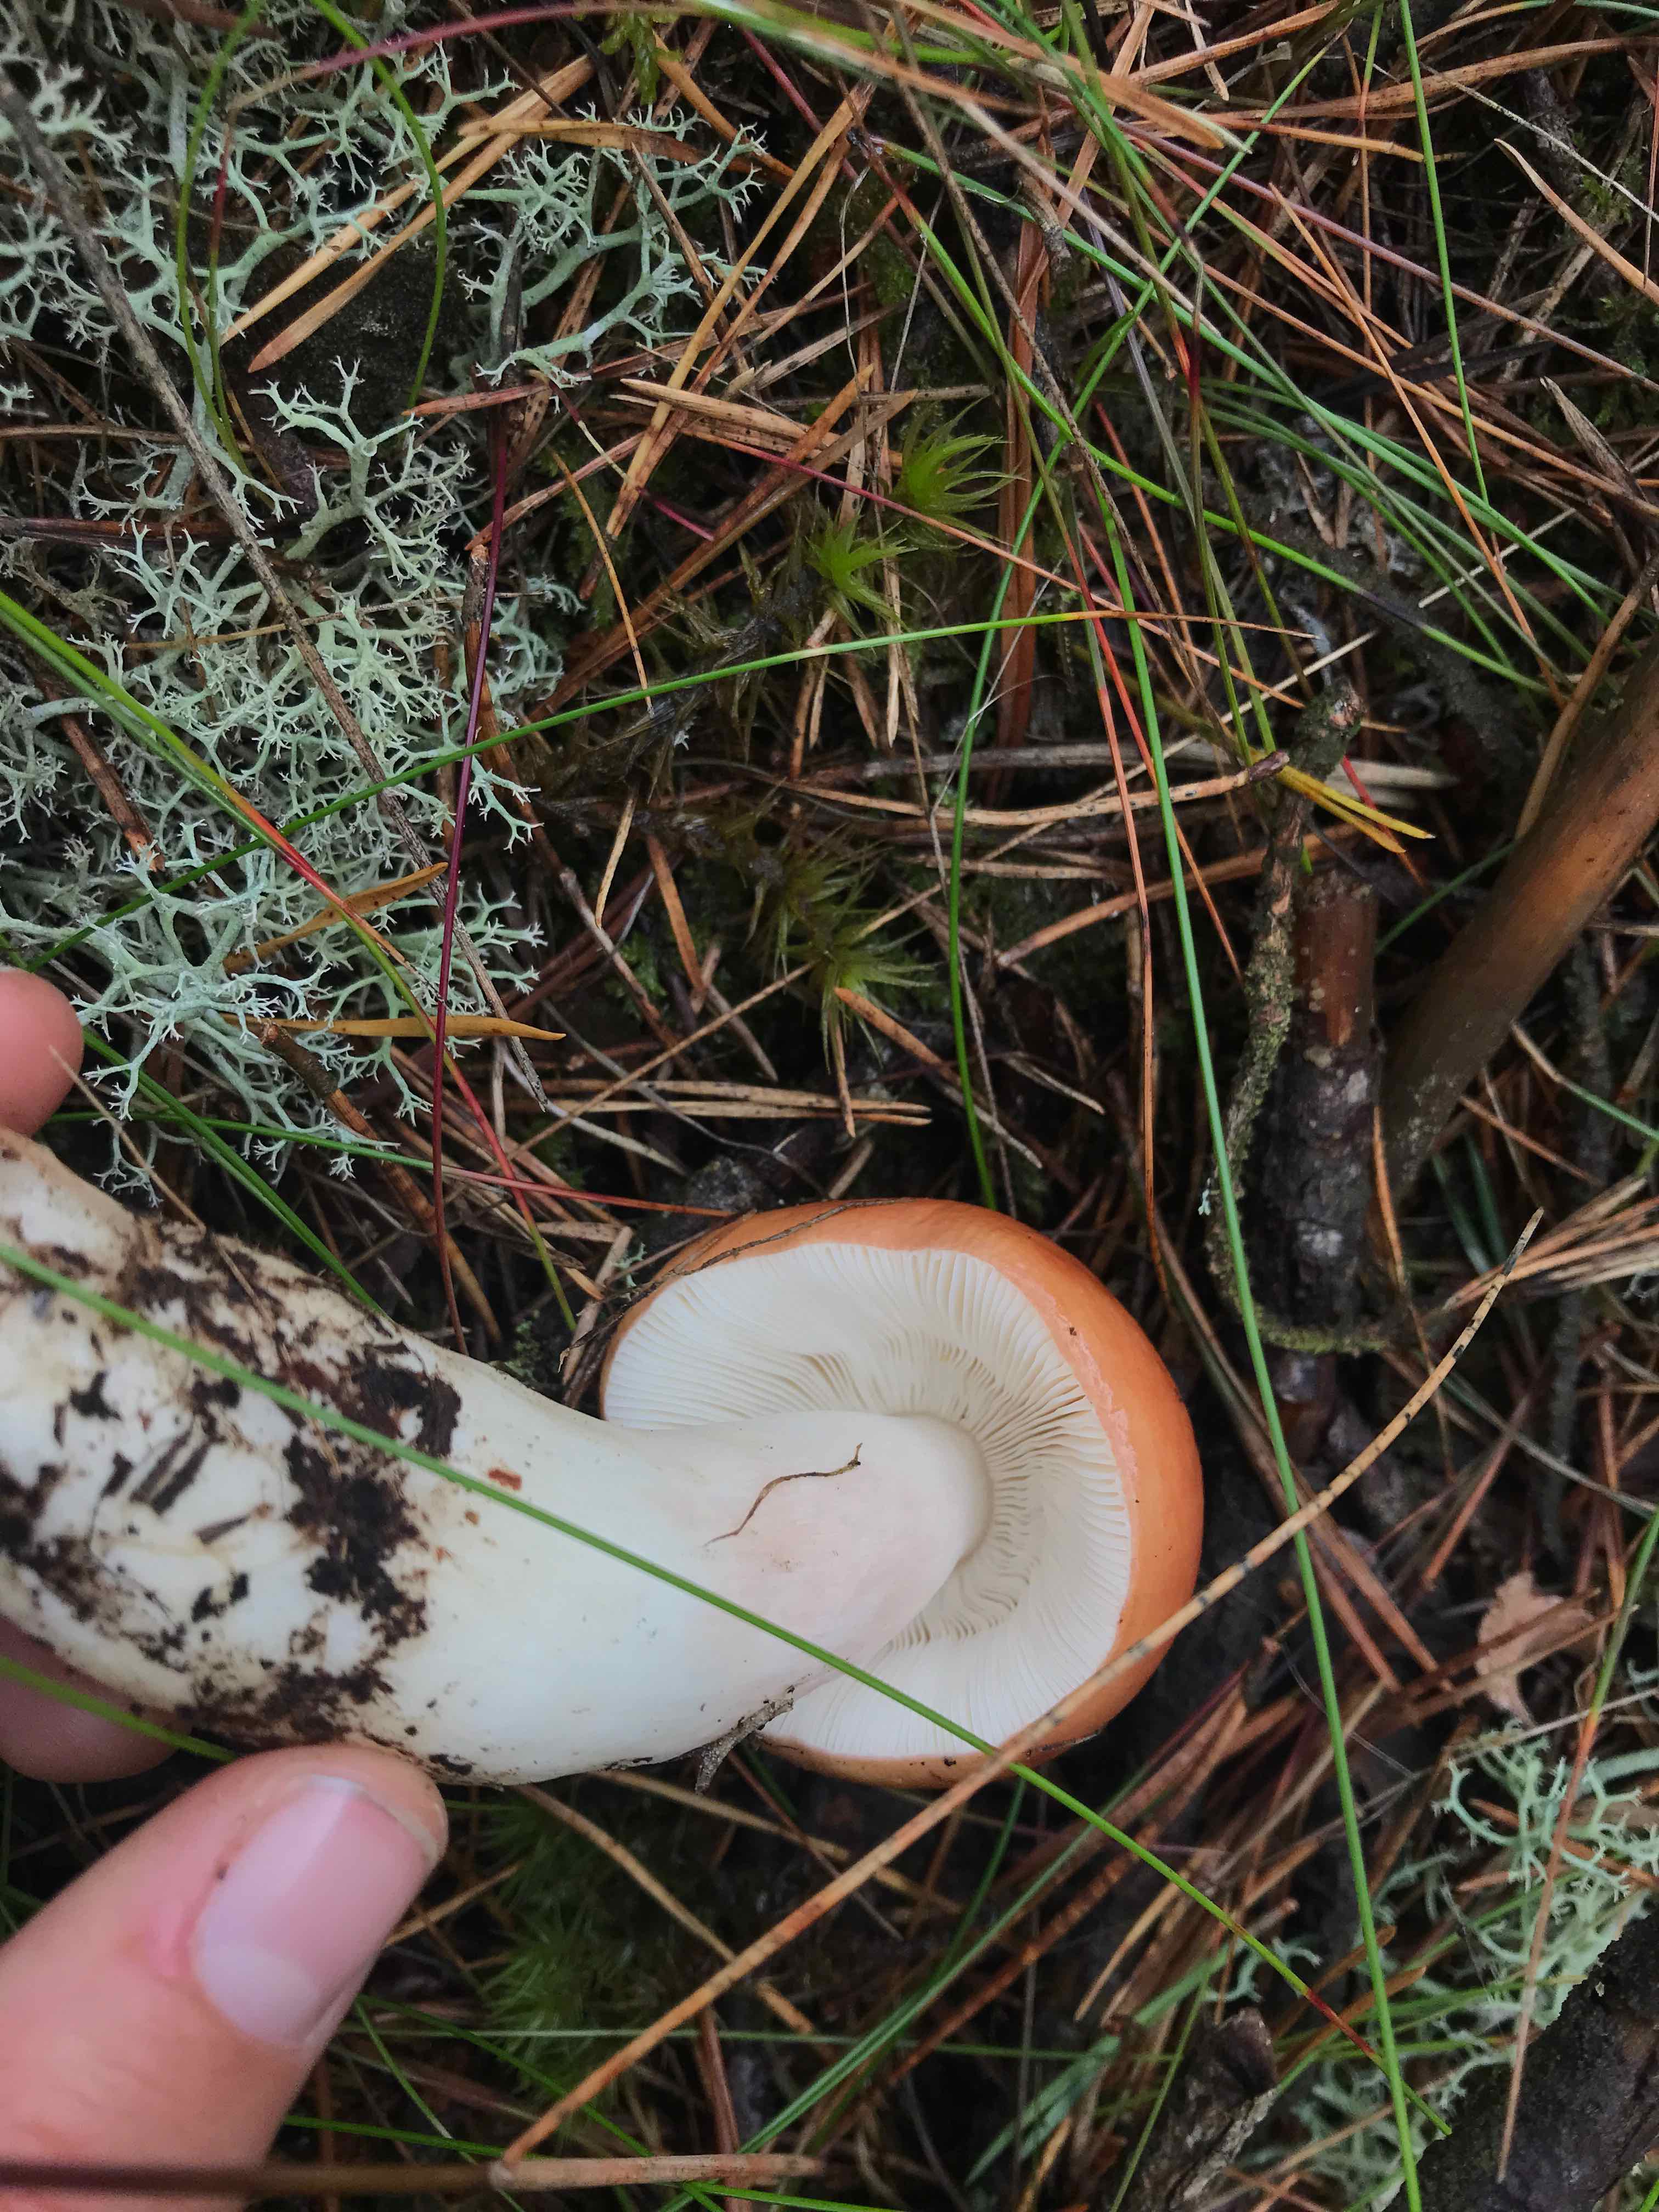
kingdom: Fungi
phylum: Basidiomycota
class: Agaricomycetes
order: Russulales
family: Russulaceae
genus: Russula
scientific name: Russula paludosa
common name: prægtig skørhat
